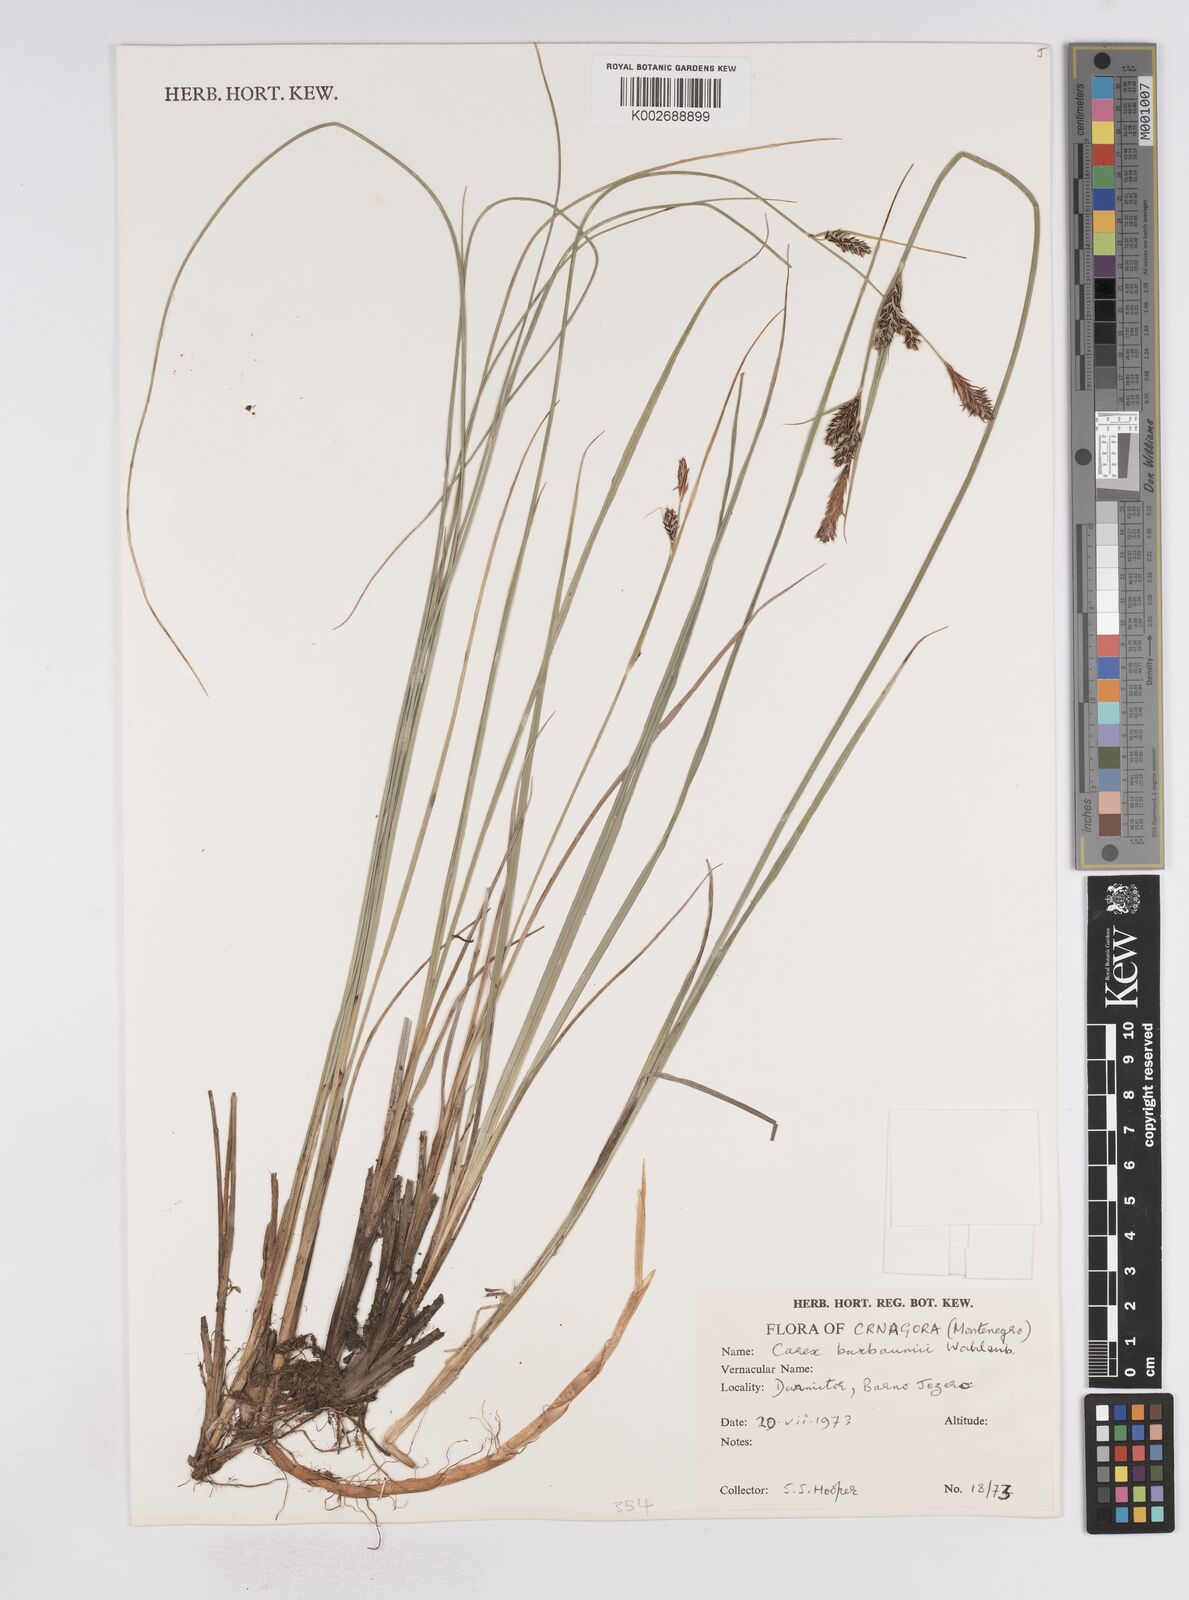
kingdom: Plantae
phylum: Tracheophyta
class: Liliopsida
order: Poales
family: Cyperaceae
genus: Carex
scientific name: Carex buxbaumii
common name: Club sedge
